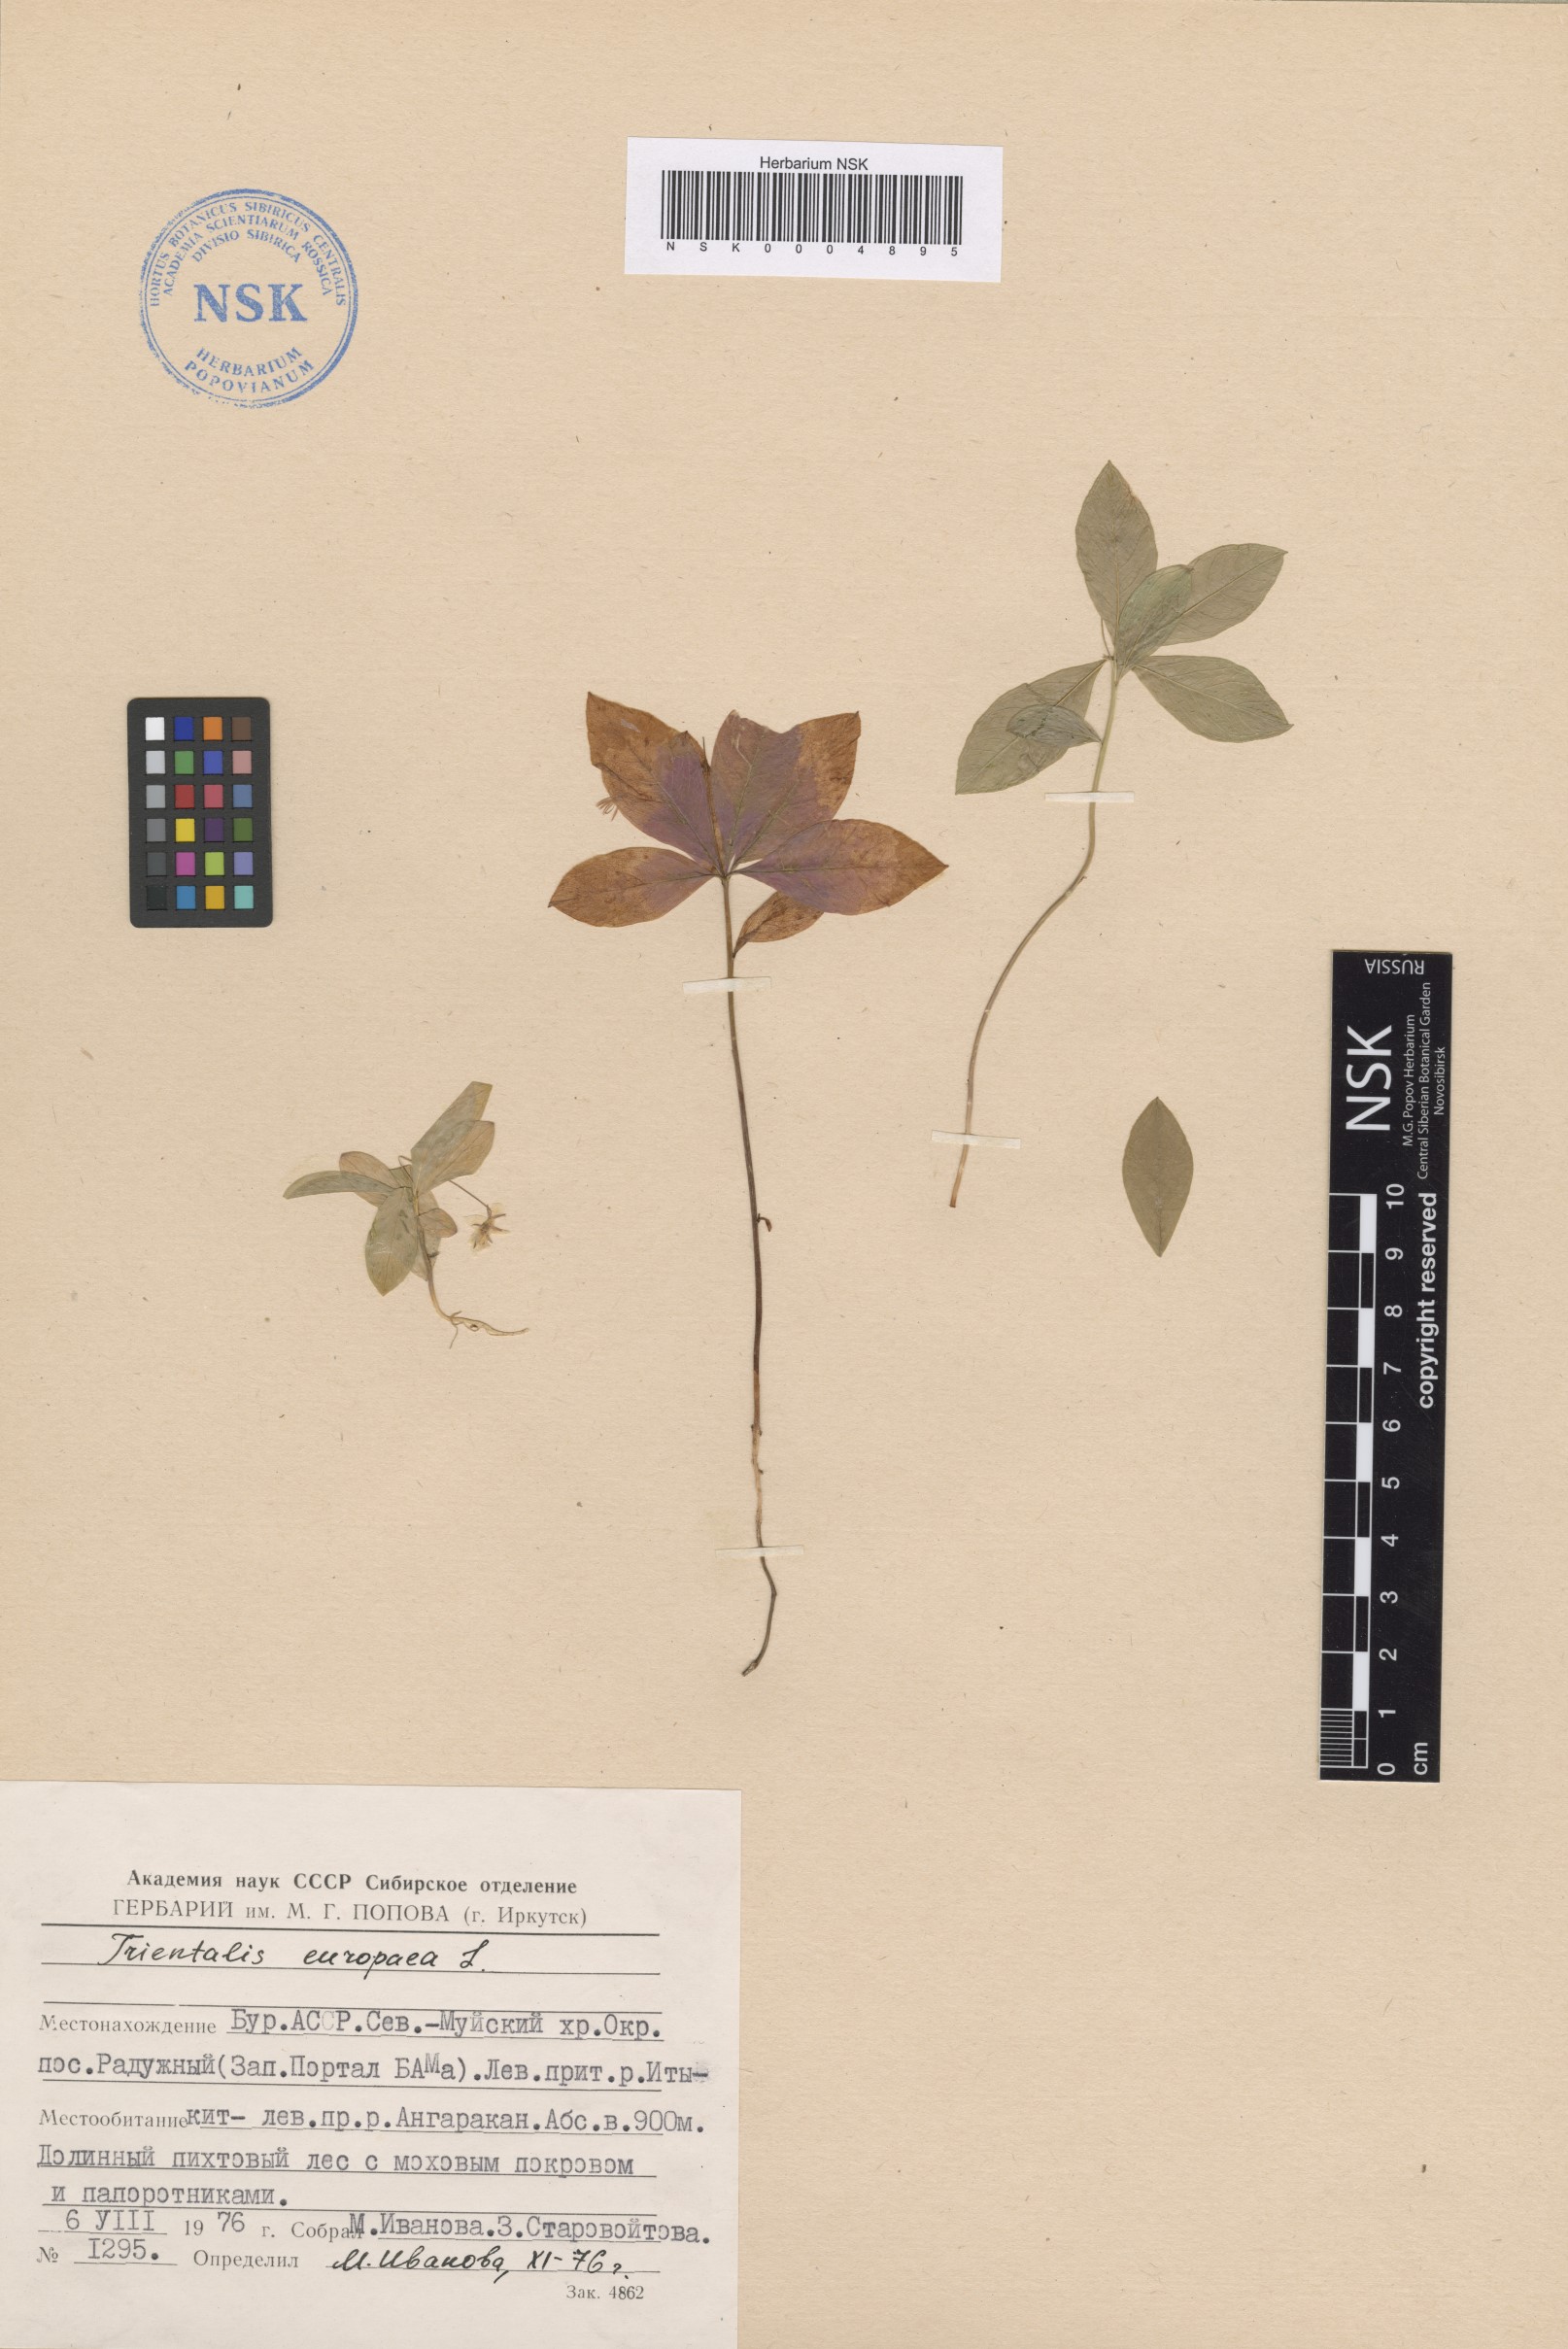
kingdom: Plantae
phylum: Tracheophyta
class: Magnoliopsida
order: Ericales
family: Primulaceae
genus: Lysimachia
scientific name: Lysimachia europaea
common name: Arctic starflower
